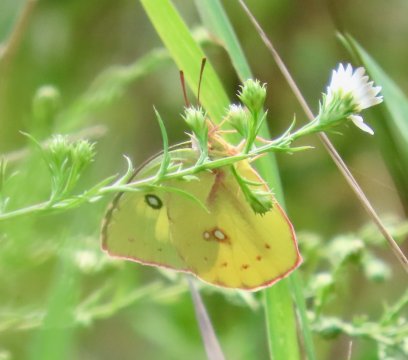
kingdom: Animalia
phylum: Arthropoda
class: Insecta
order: Lepidoptera
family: Pieridae
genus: Zerene
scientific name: Zerene cesonia
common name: Southern Dogface
